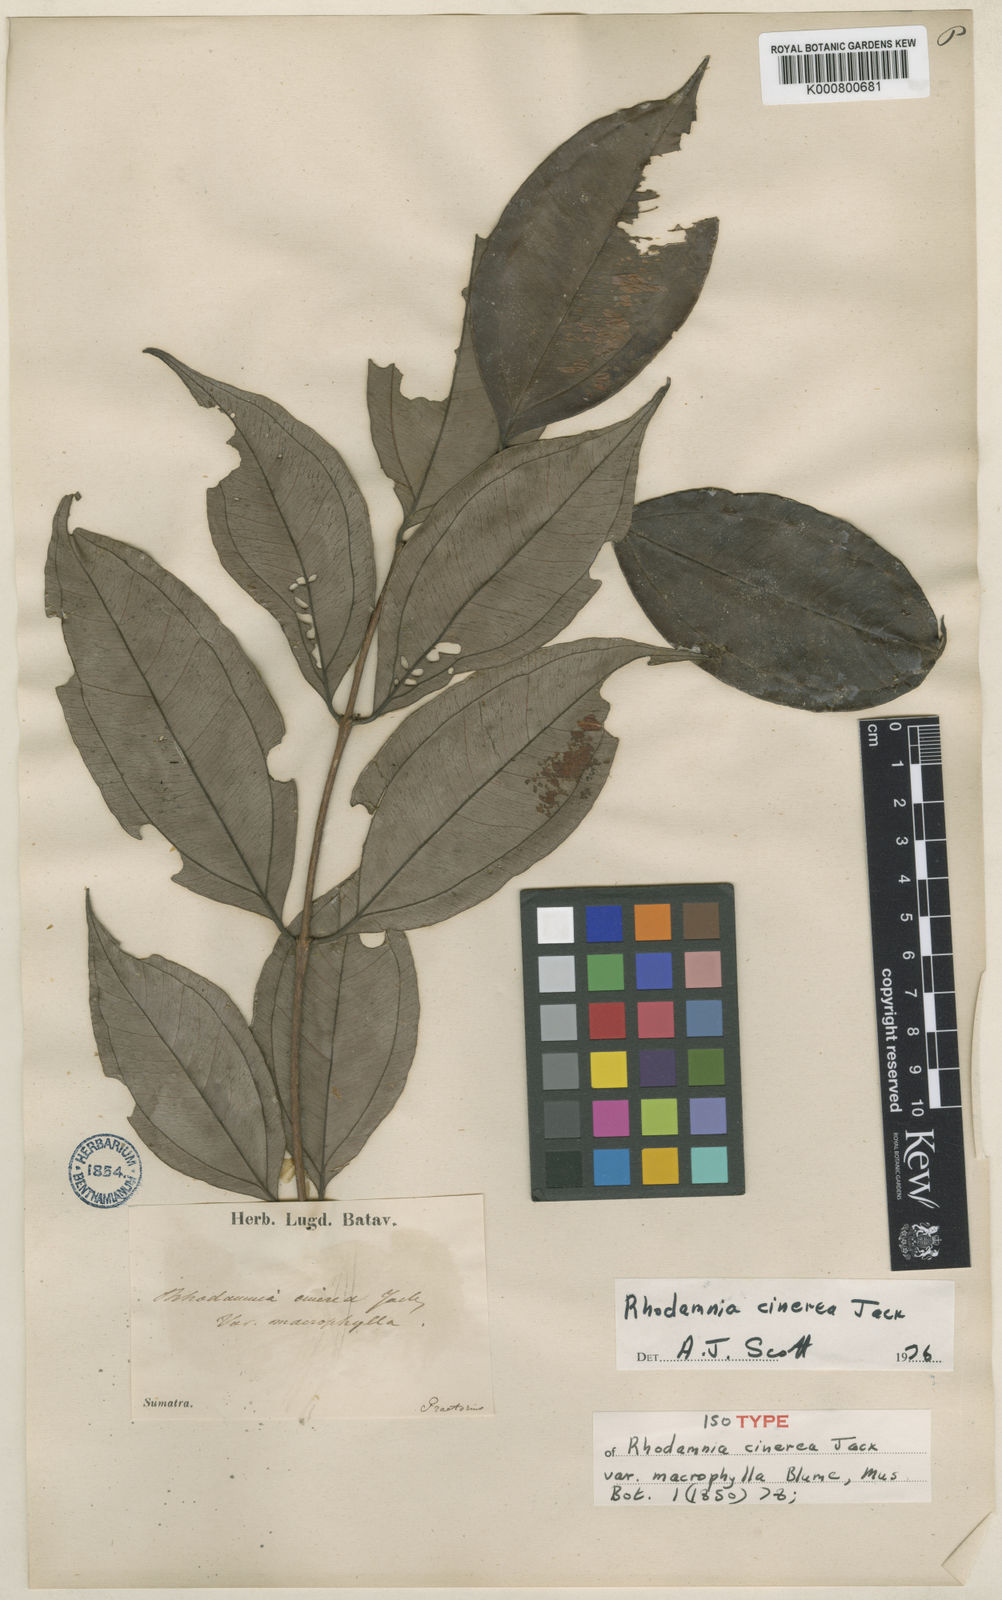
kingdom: Plantae
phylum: Tracheophyta
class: Magnoliopsida
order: Myrtales
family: Myrtaceae
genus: Rhodamnia
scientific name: Rhodamnia cinerea
